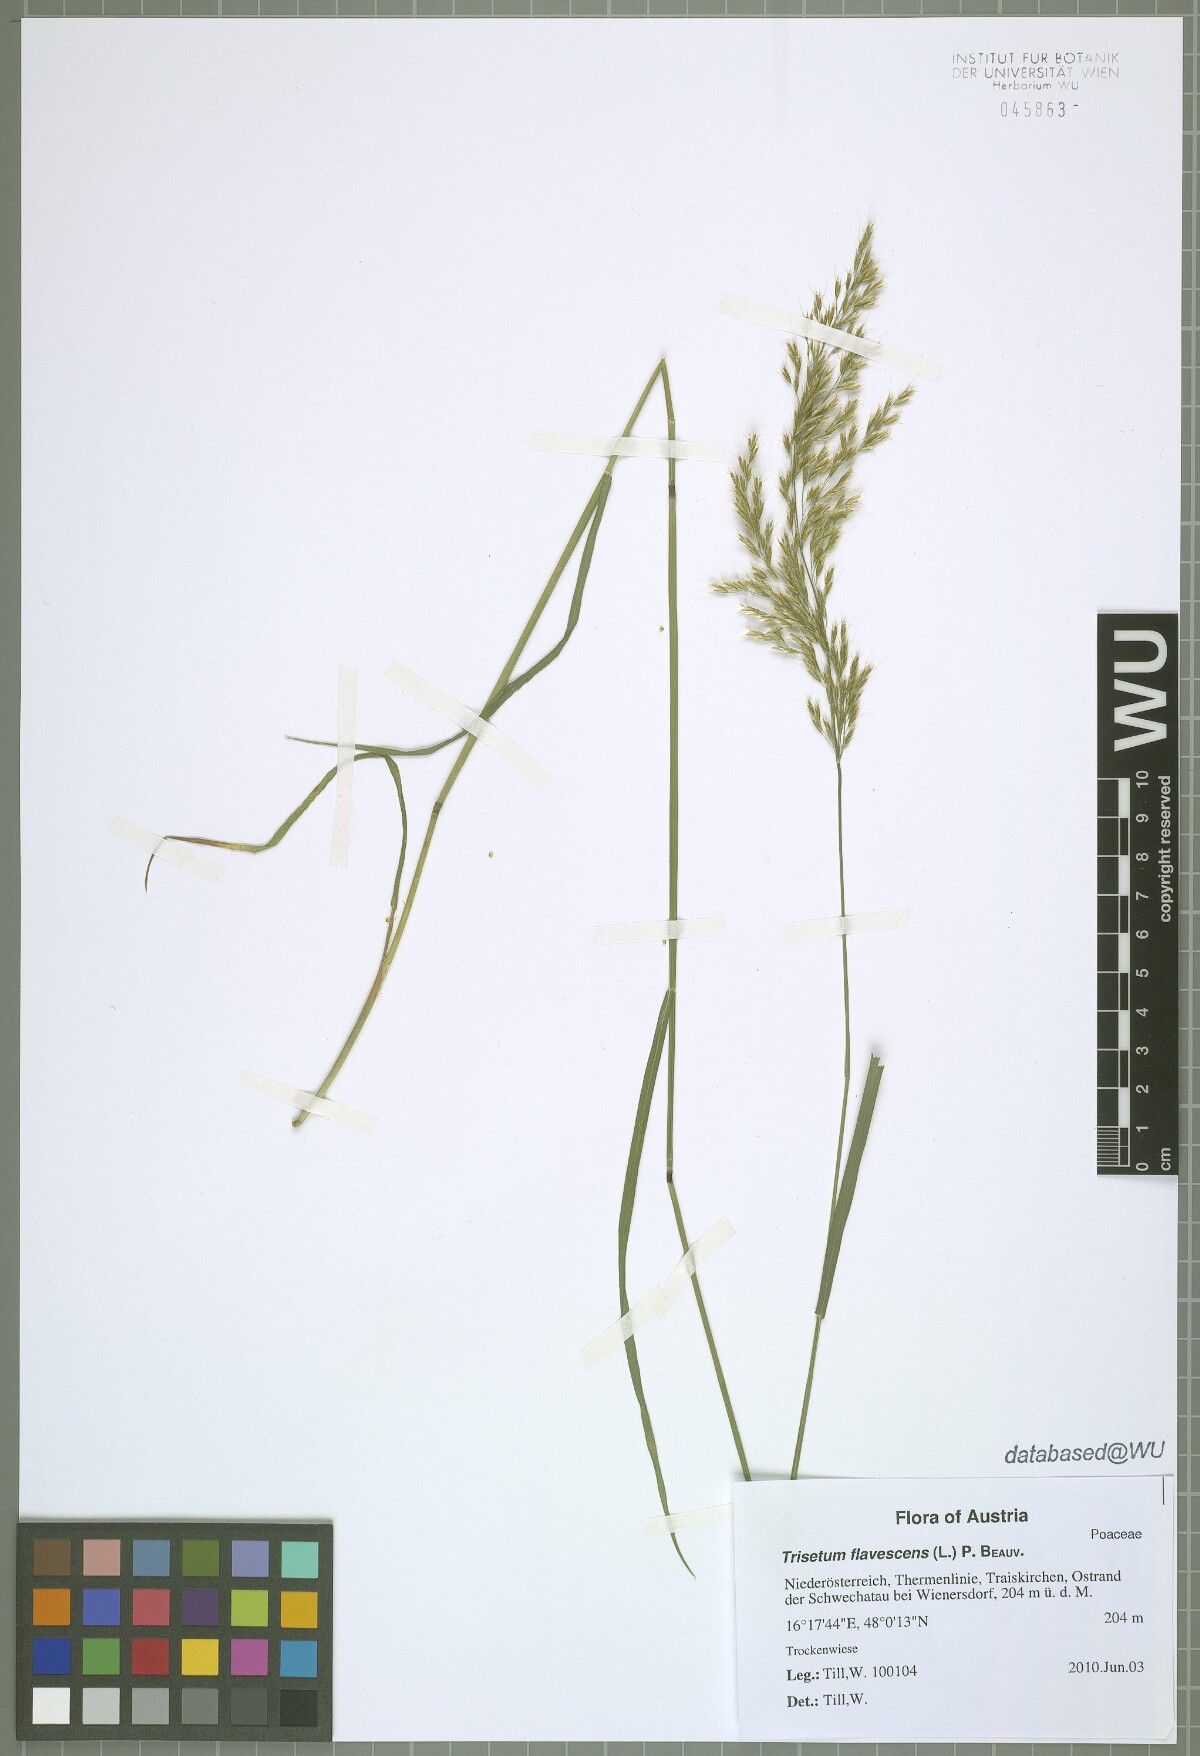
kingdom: Plantae
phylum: Tracheophyta
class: Liliopsida
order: Poales
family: Poaceae
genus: Trisetum
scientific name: Trisetum flavescens
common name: Yellow oat-grass
